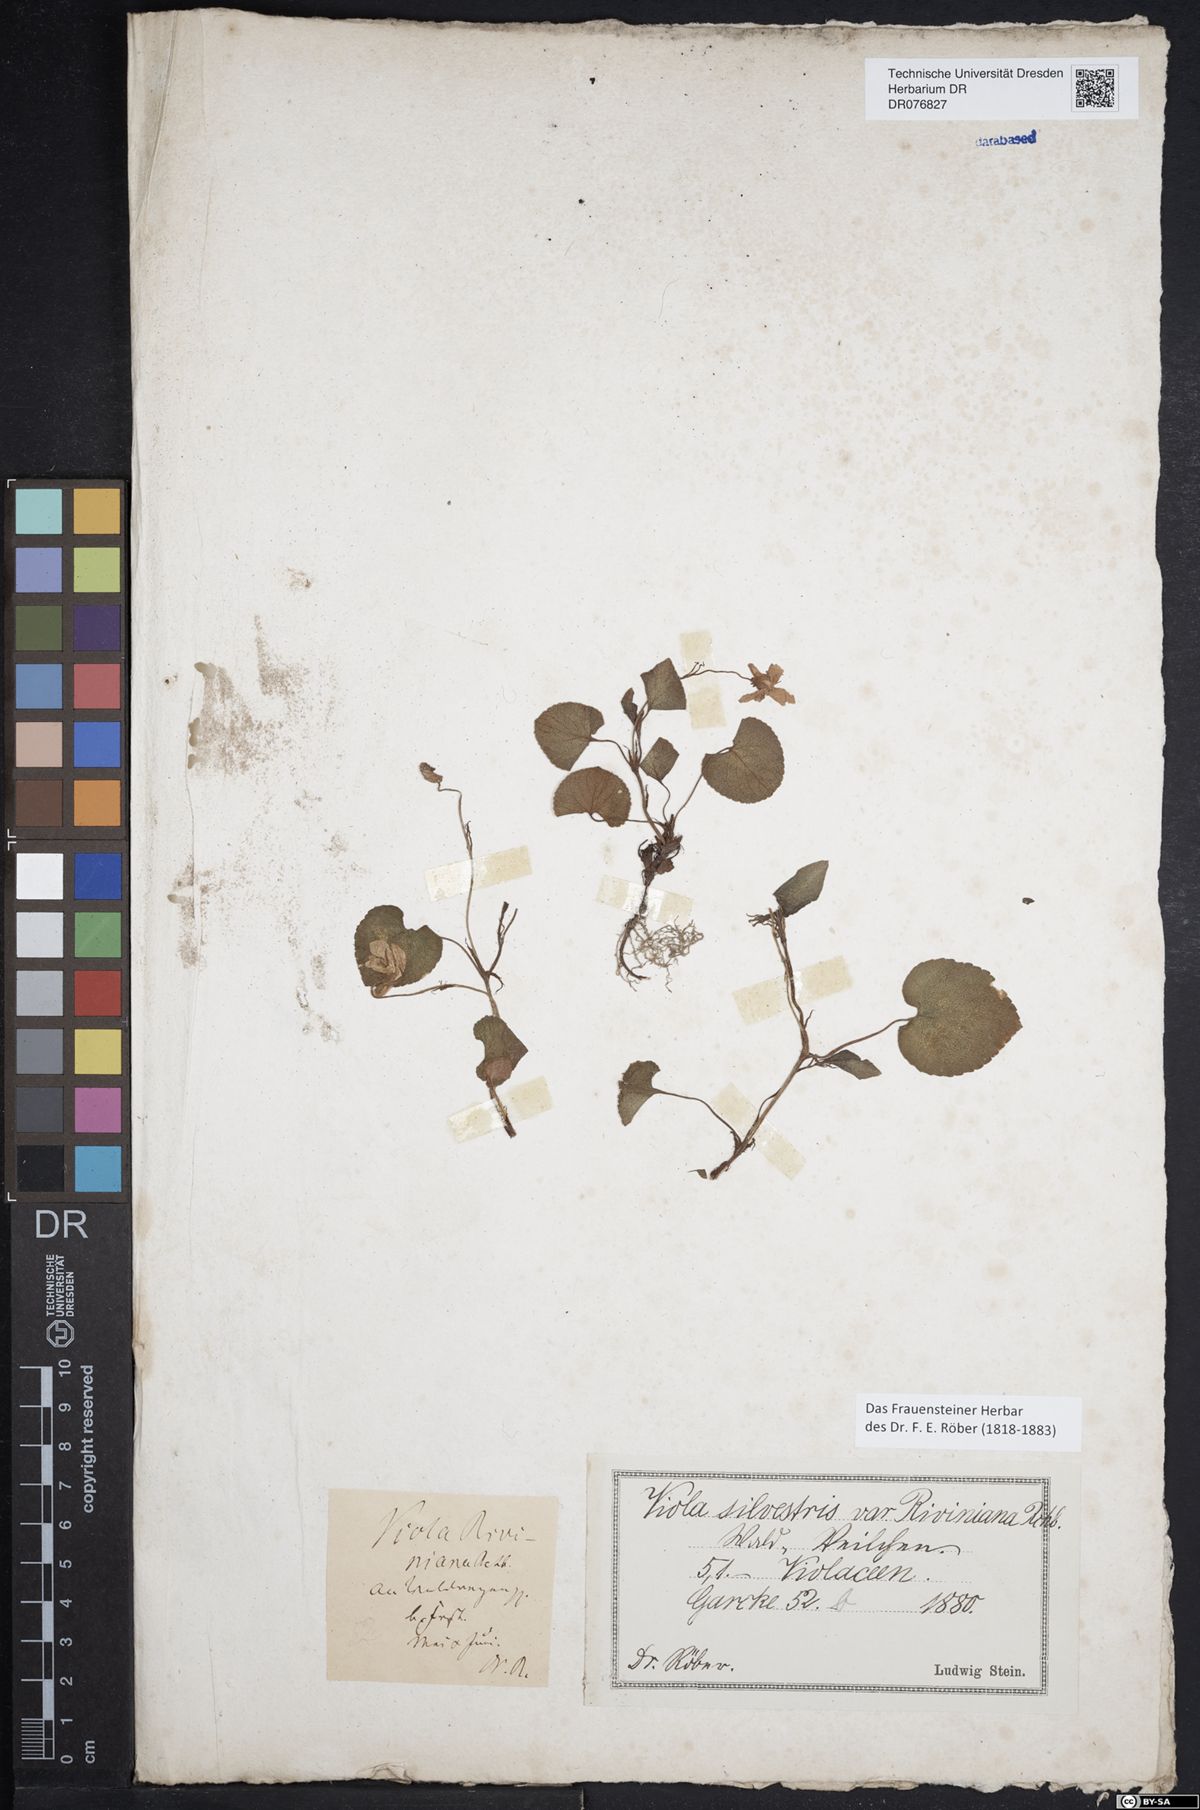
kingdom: Plantae
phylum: Tracheophyta
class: Magnoliopsida
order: Malpighiales
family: Violaceae
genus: Viola
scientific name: Viola
